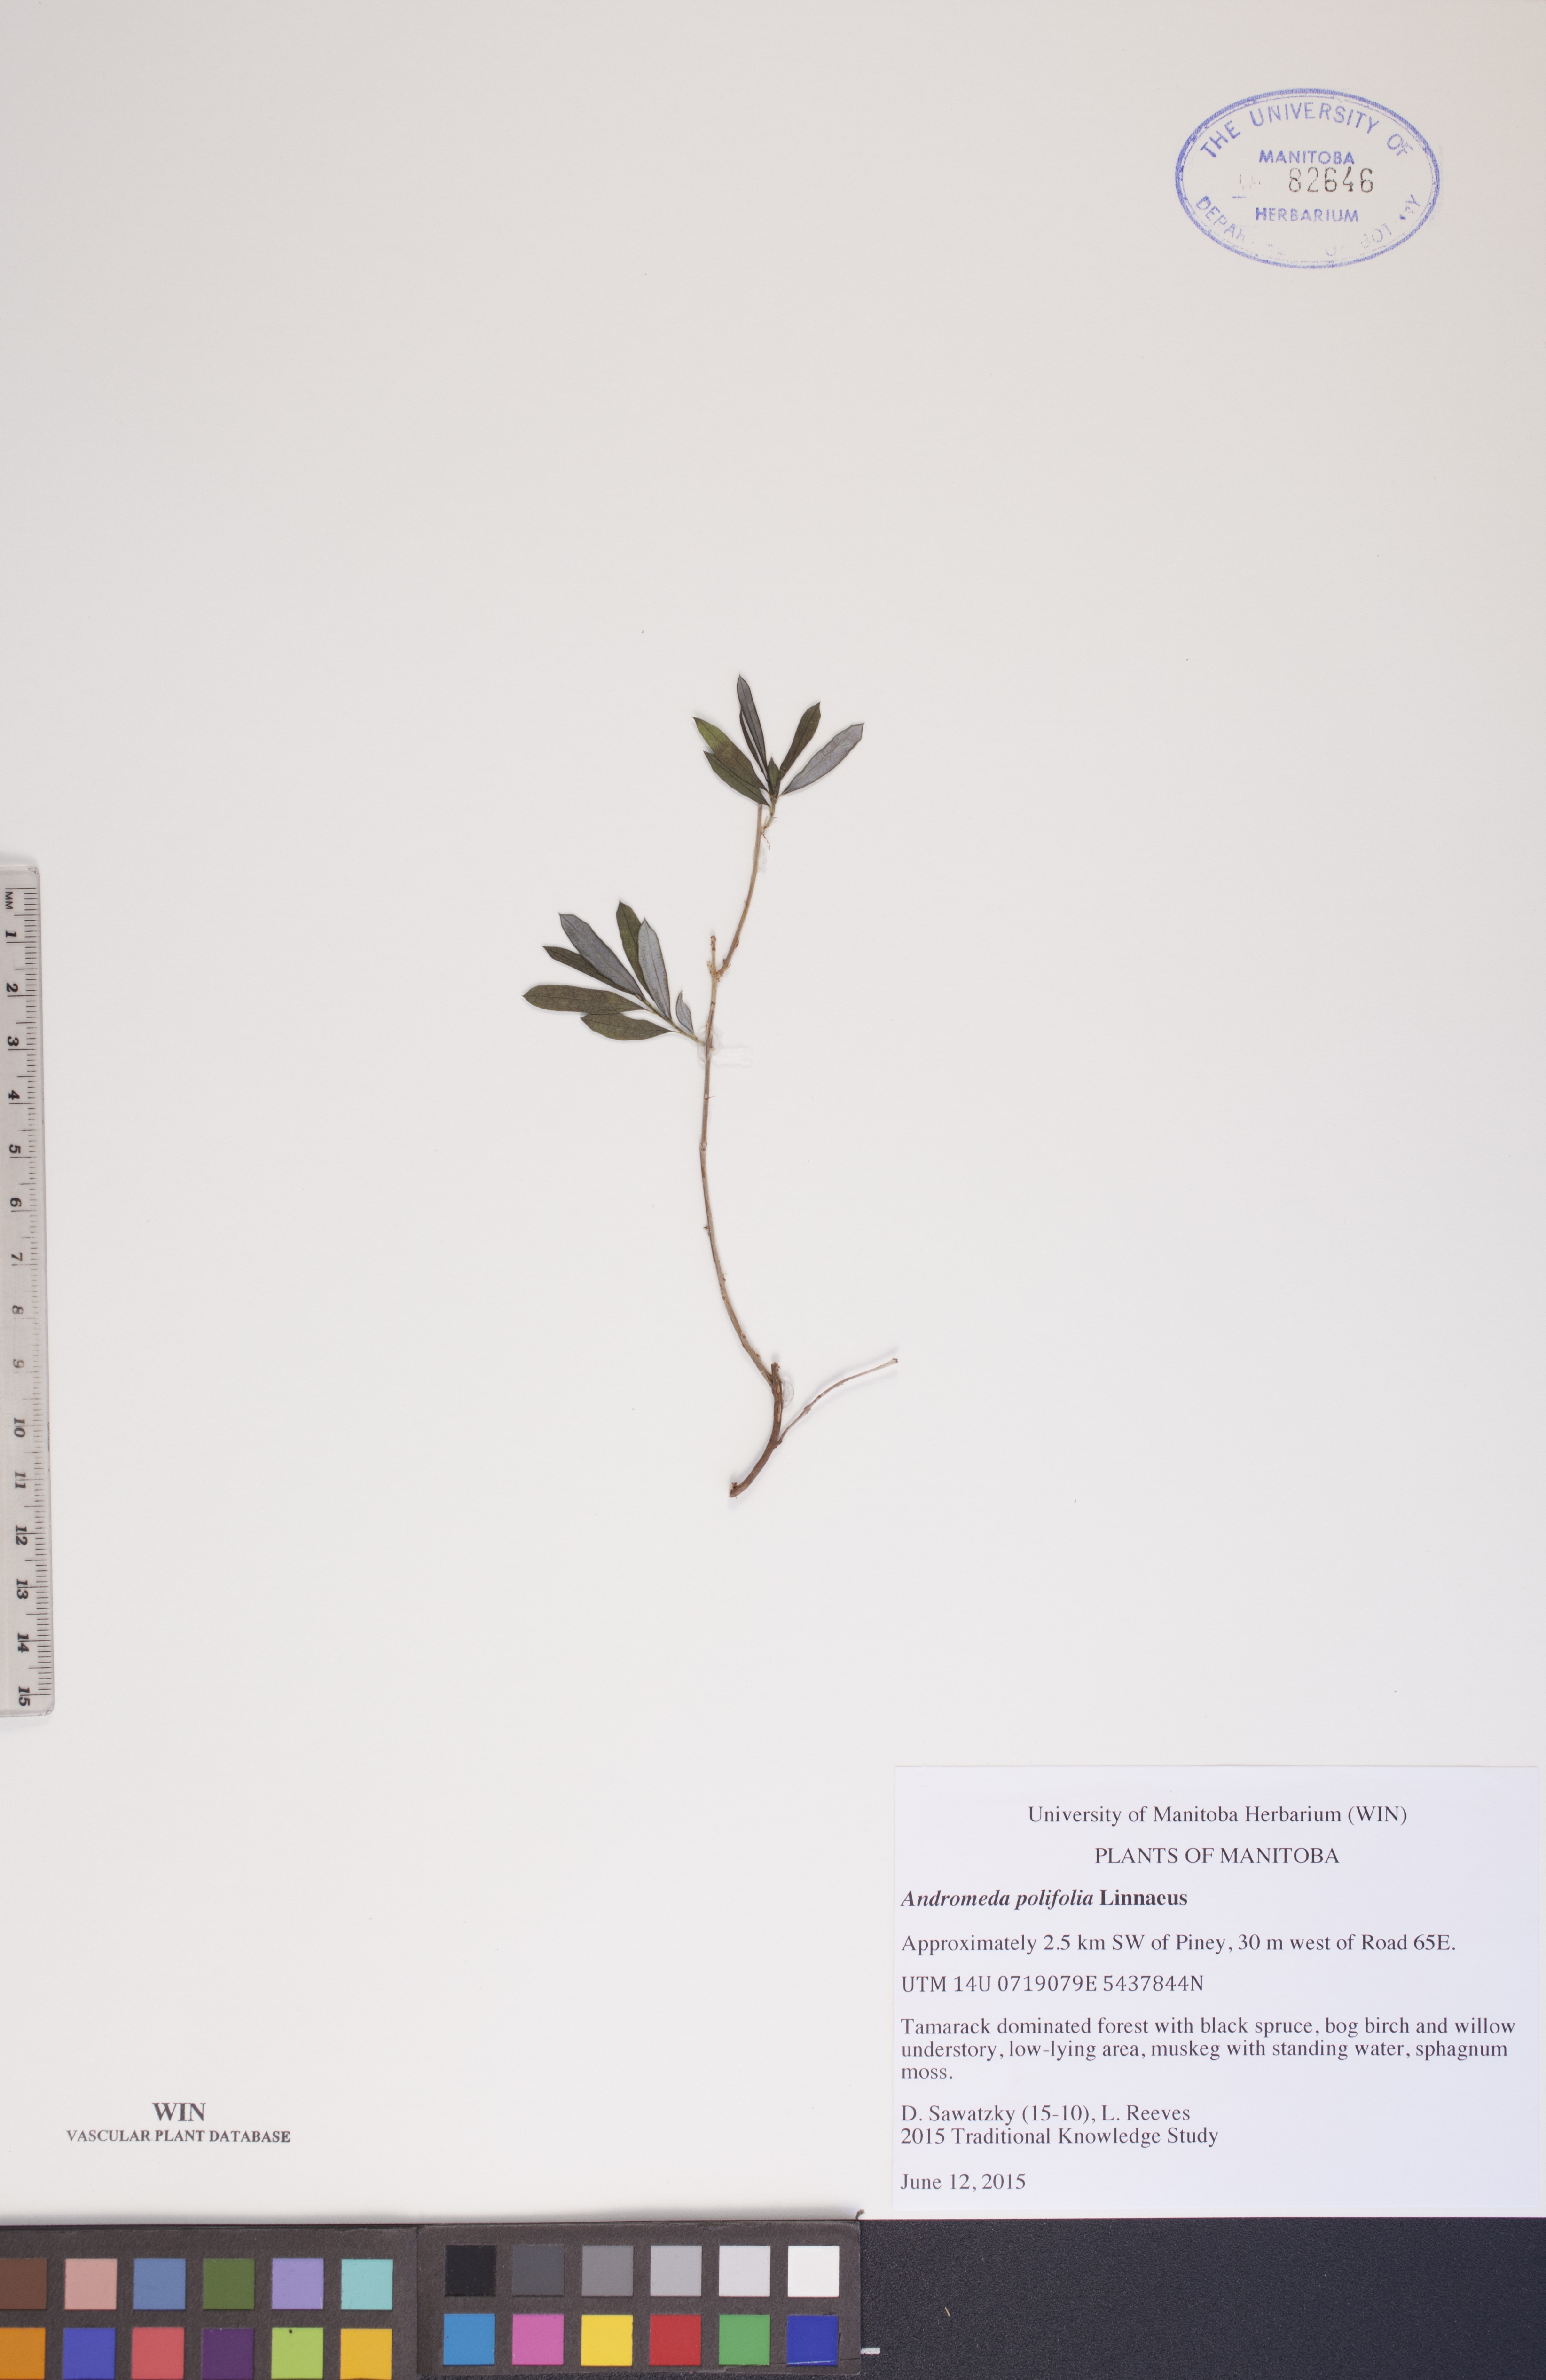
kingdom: Plantae
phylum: Tracheophyta
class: Magnoliopsida
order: Ericales
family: Ericaceae
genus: Andromeda
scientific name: Andromeda polifolia
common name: Bog-rosemary
